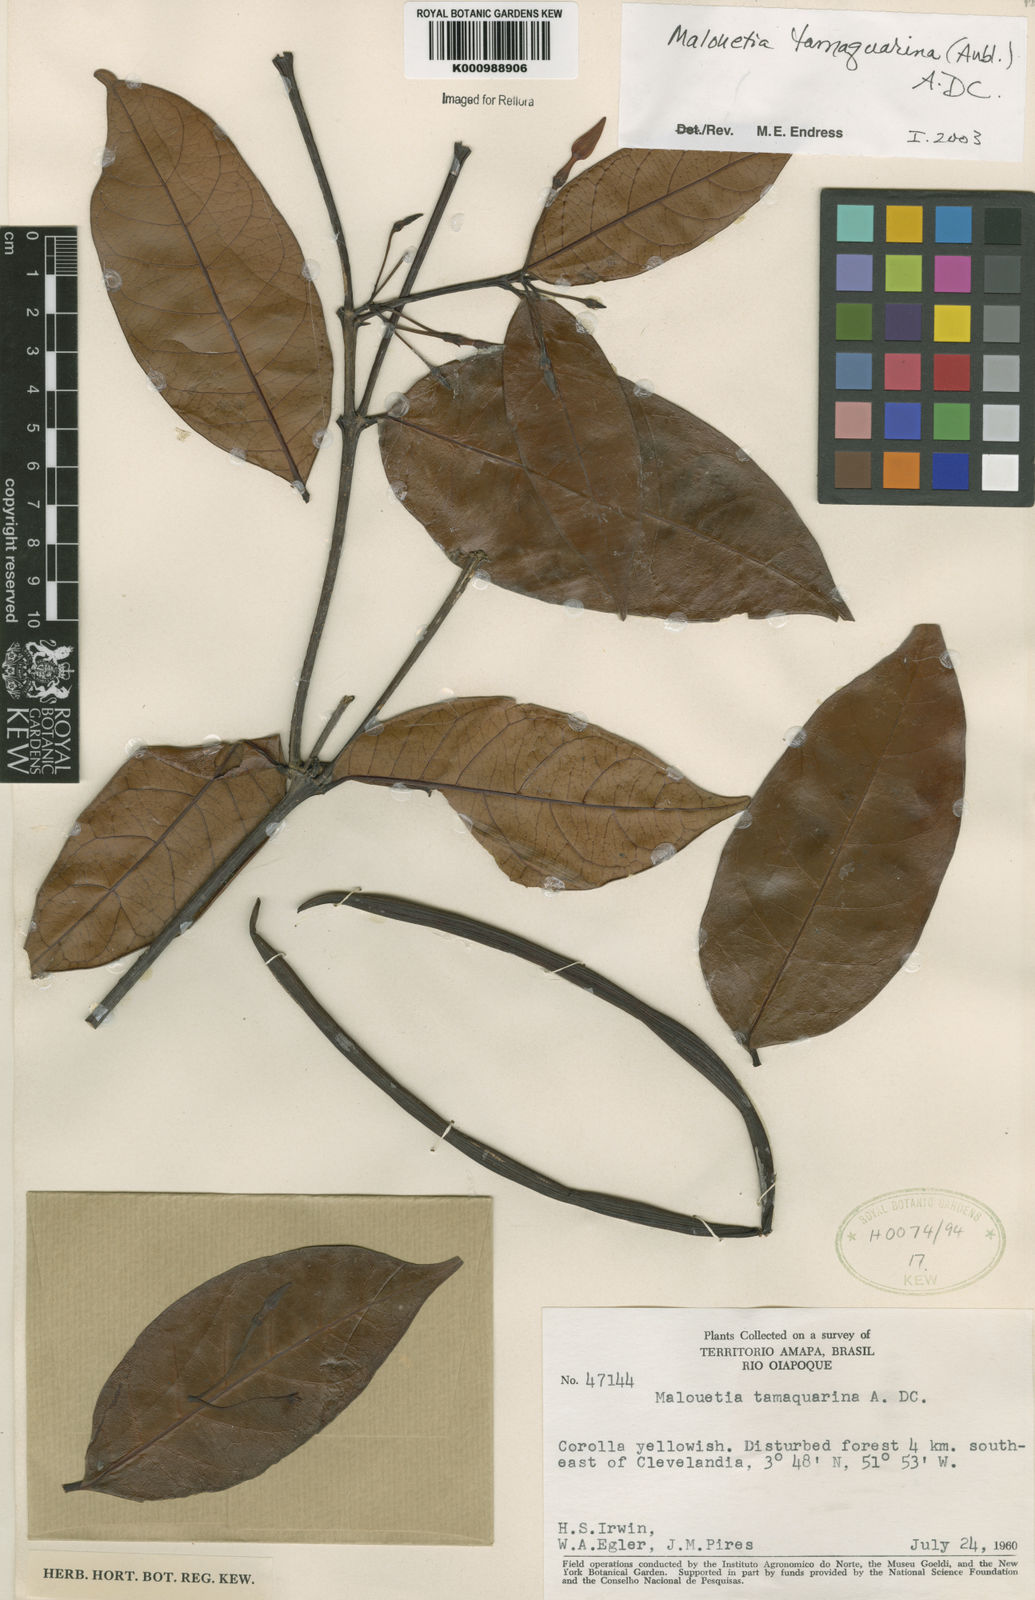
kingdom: Plantae
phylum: Tracheophyta
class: Magnoliopsida
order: Gentianales
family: Apocynaceae
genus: Malouetia
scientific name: Malouetia tamaquarina
